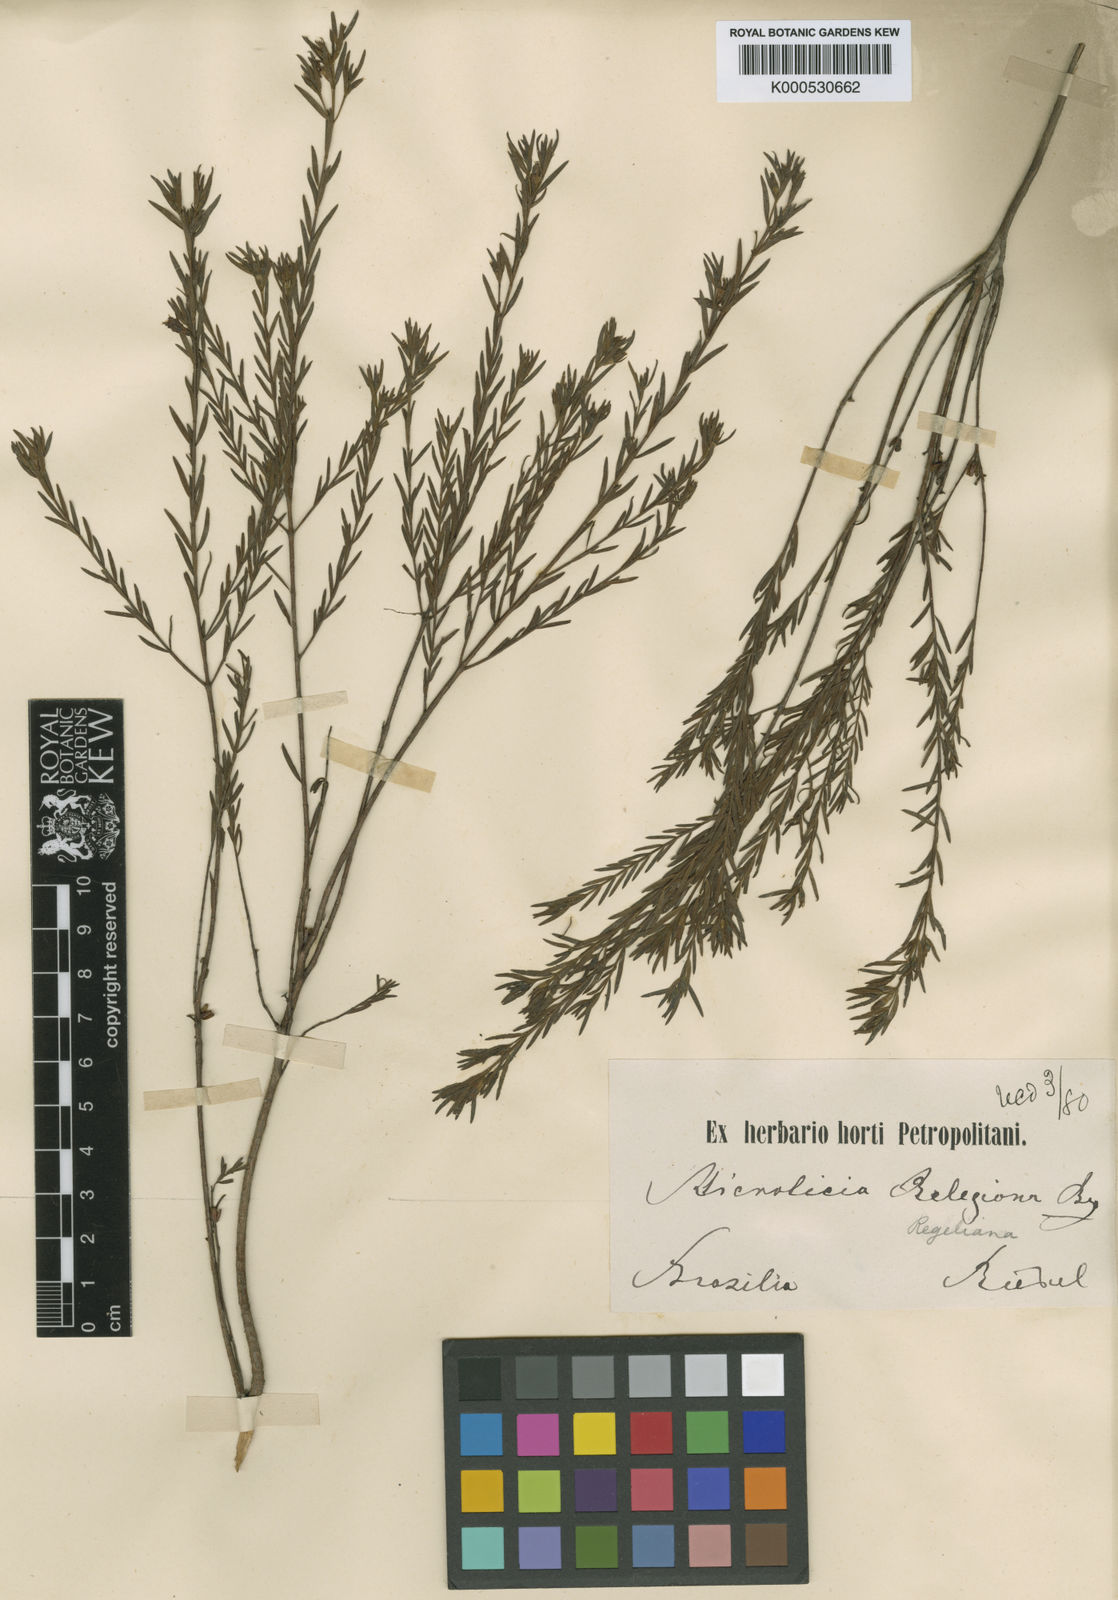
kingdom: Plantae
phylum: Tracheophyta
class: Magnoliopsida
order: Myrtales
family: Melastomataceae
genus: Microlicia
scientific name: Microlicia pithyoides
